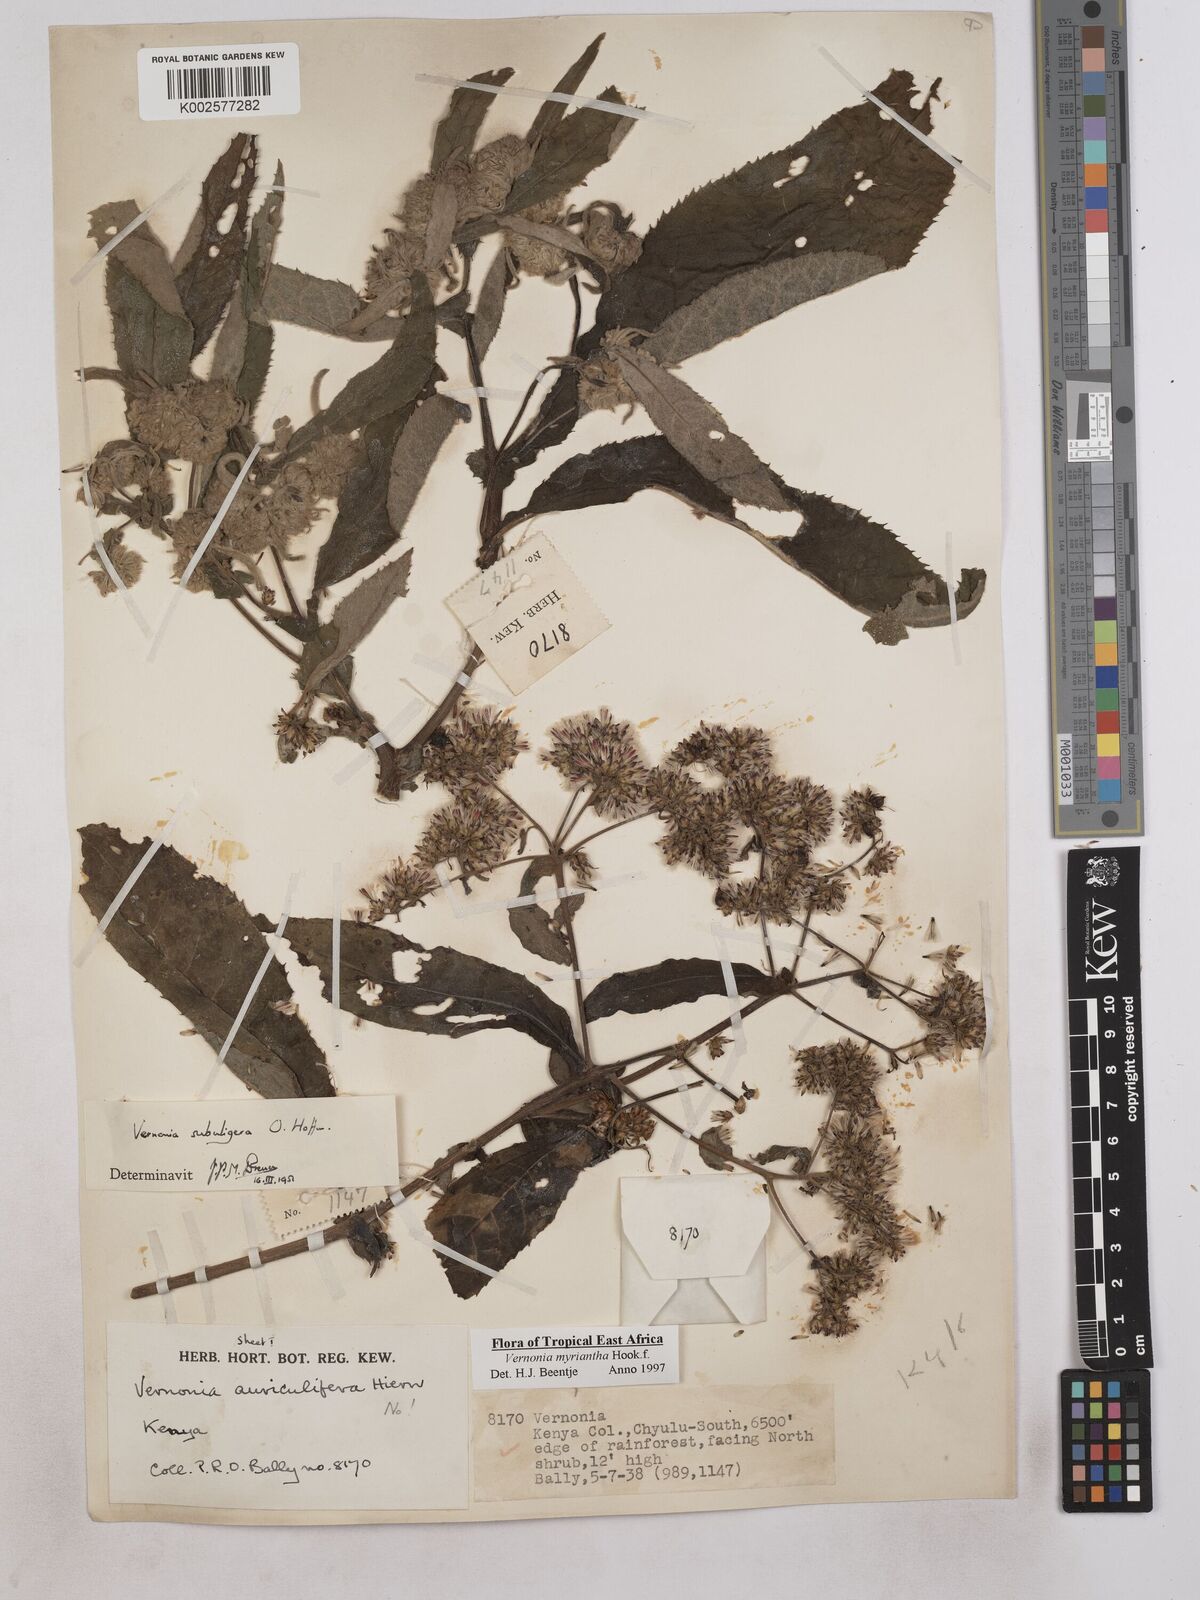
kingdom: Plantae
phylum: Tracheophyta
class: Magnoliopsida
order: Asterales
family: Asteraceae
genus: Gymnanthemum
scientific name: Gymnanthemum myrianthum
